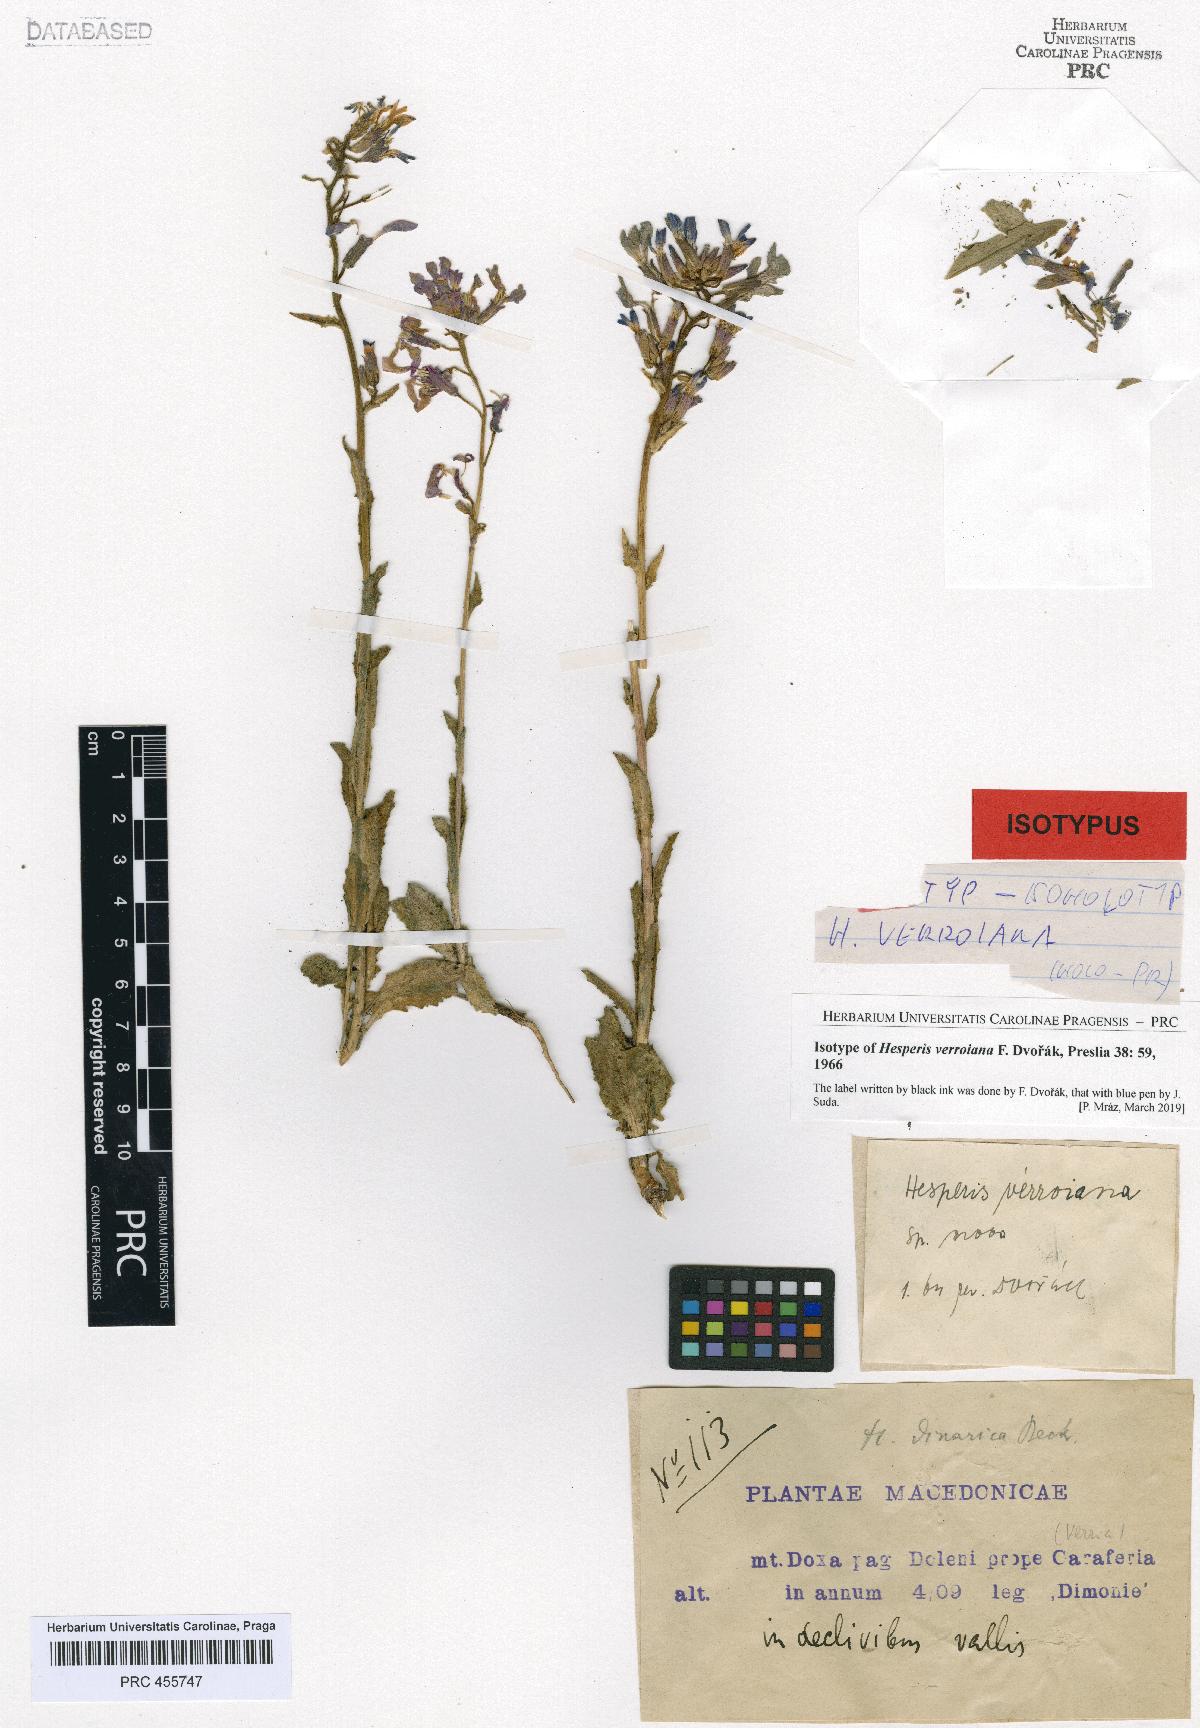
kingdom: Plantae
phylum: Tracheophyta
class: Magnoliopsida
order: Brassicales
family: Brassicaceae
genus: Hesperis
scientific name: Hesperis theophrasti
